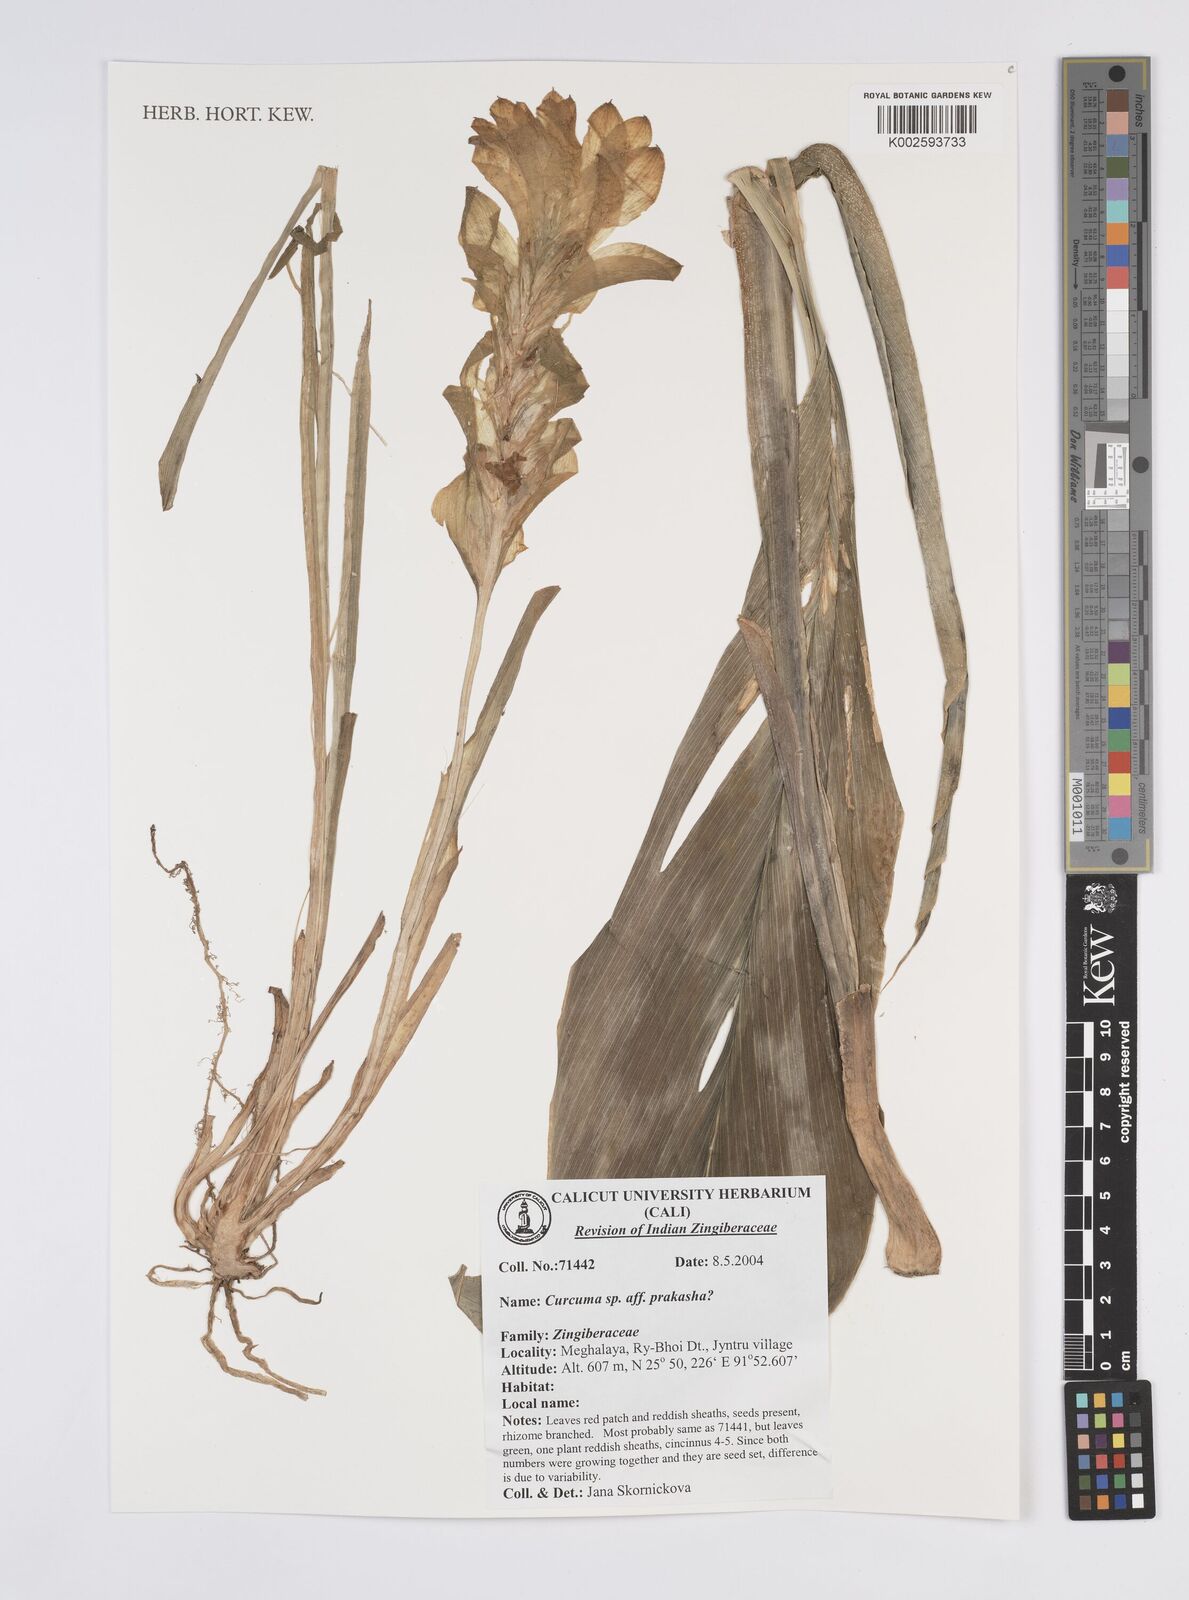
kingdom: Plantae
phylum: Tracheophyta
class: Liliopsida
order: Zingiberales
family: Zingiberaceae
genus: Curcuma
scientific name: Curcuma prakasha
